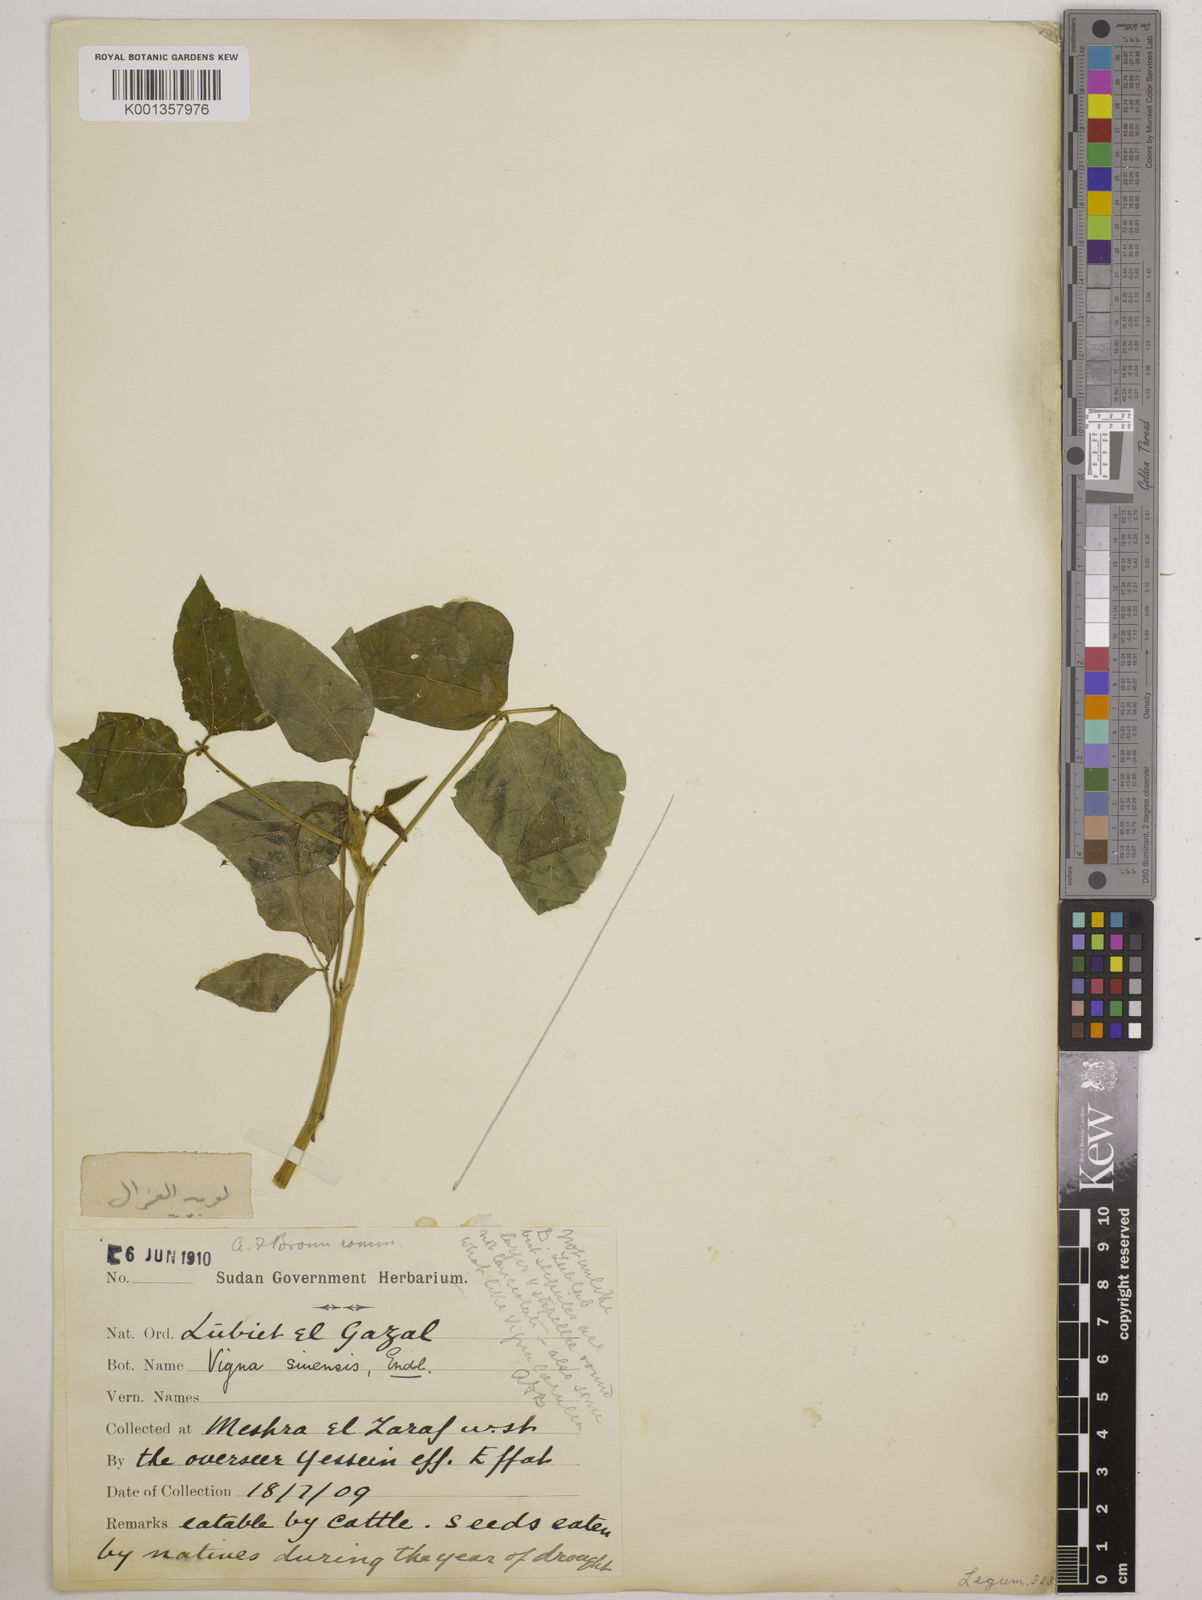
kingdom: Plantae
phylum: Tracheophyta
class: Magnoliopsida
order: Fabales
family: Fabaceae
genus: Vigna
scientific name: Vigna
